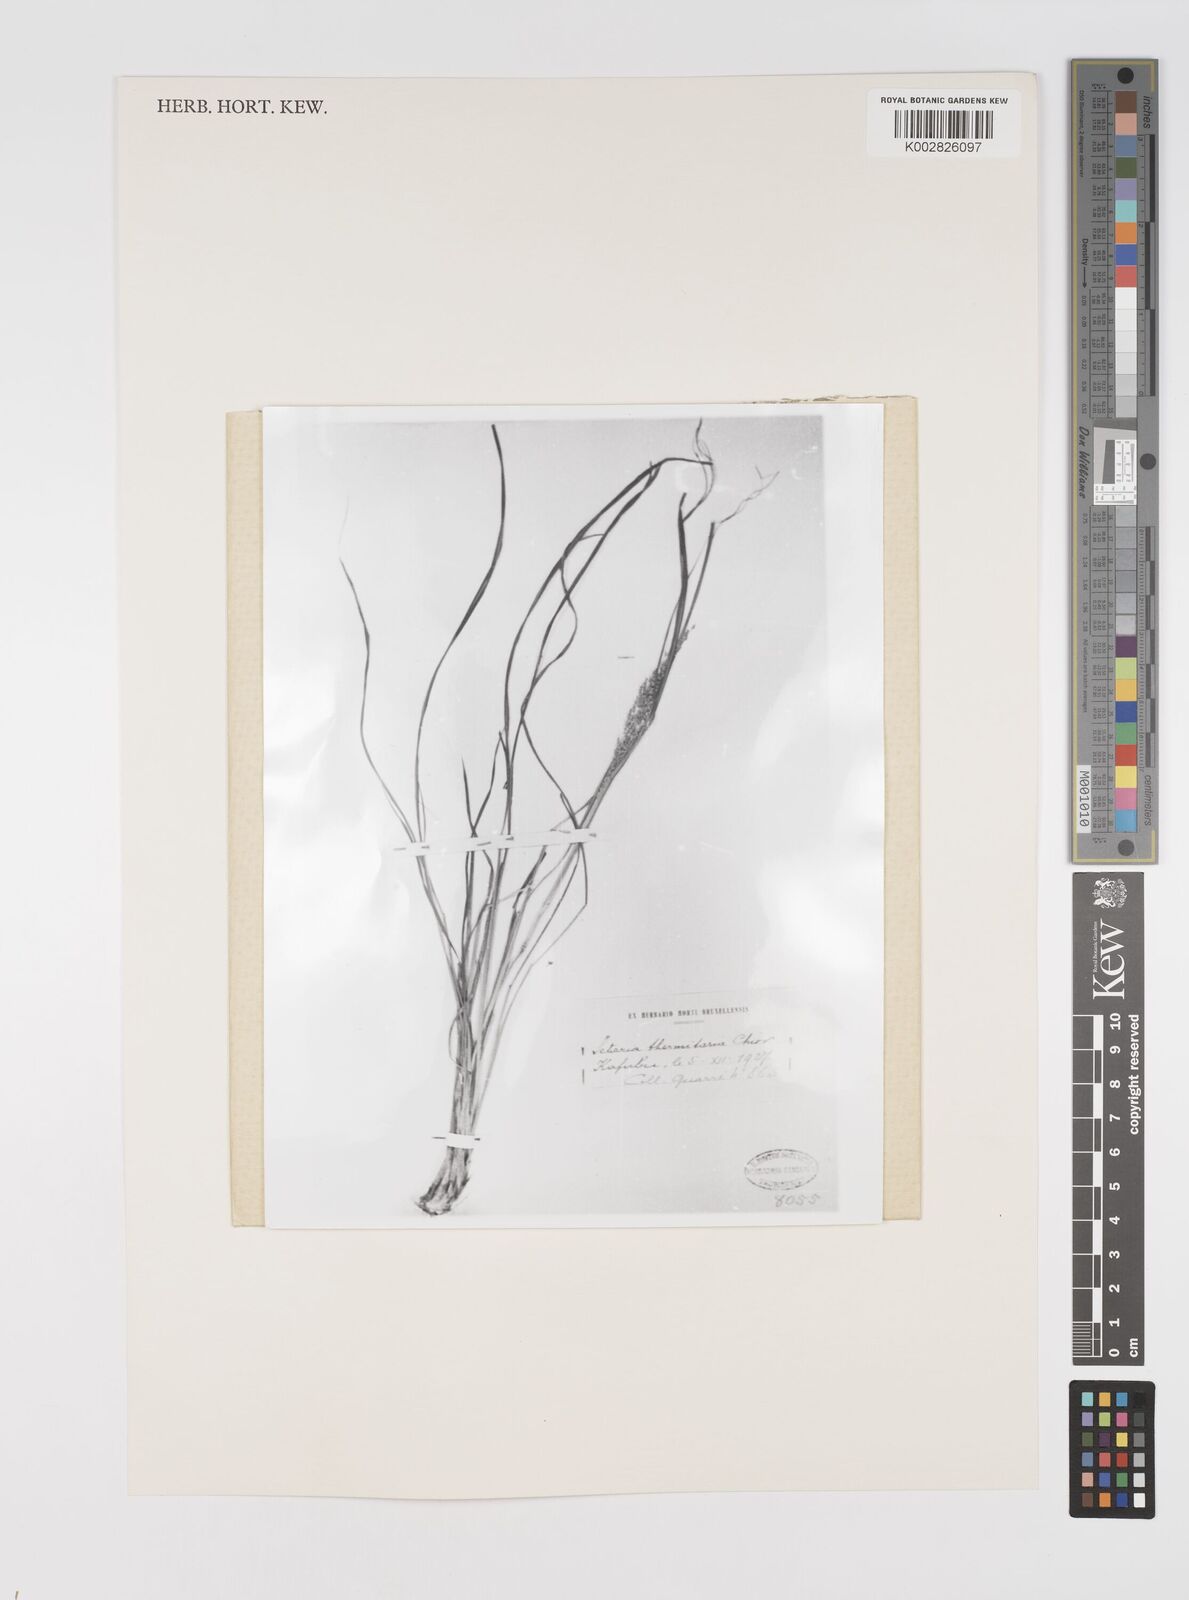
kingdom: Plantae
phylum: Tracheophyta
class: Liliopsida
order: Poales
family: Poaceae
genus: Setaria
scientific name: Setaria lindenbergiana
